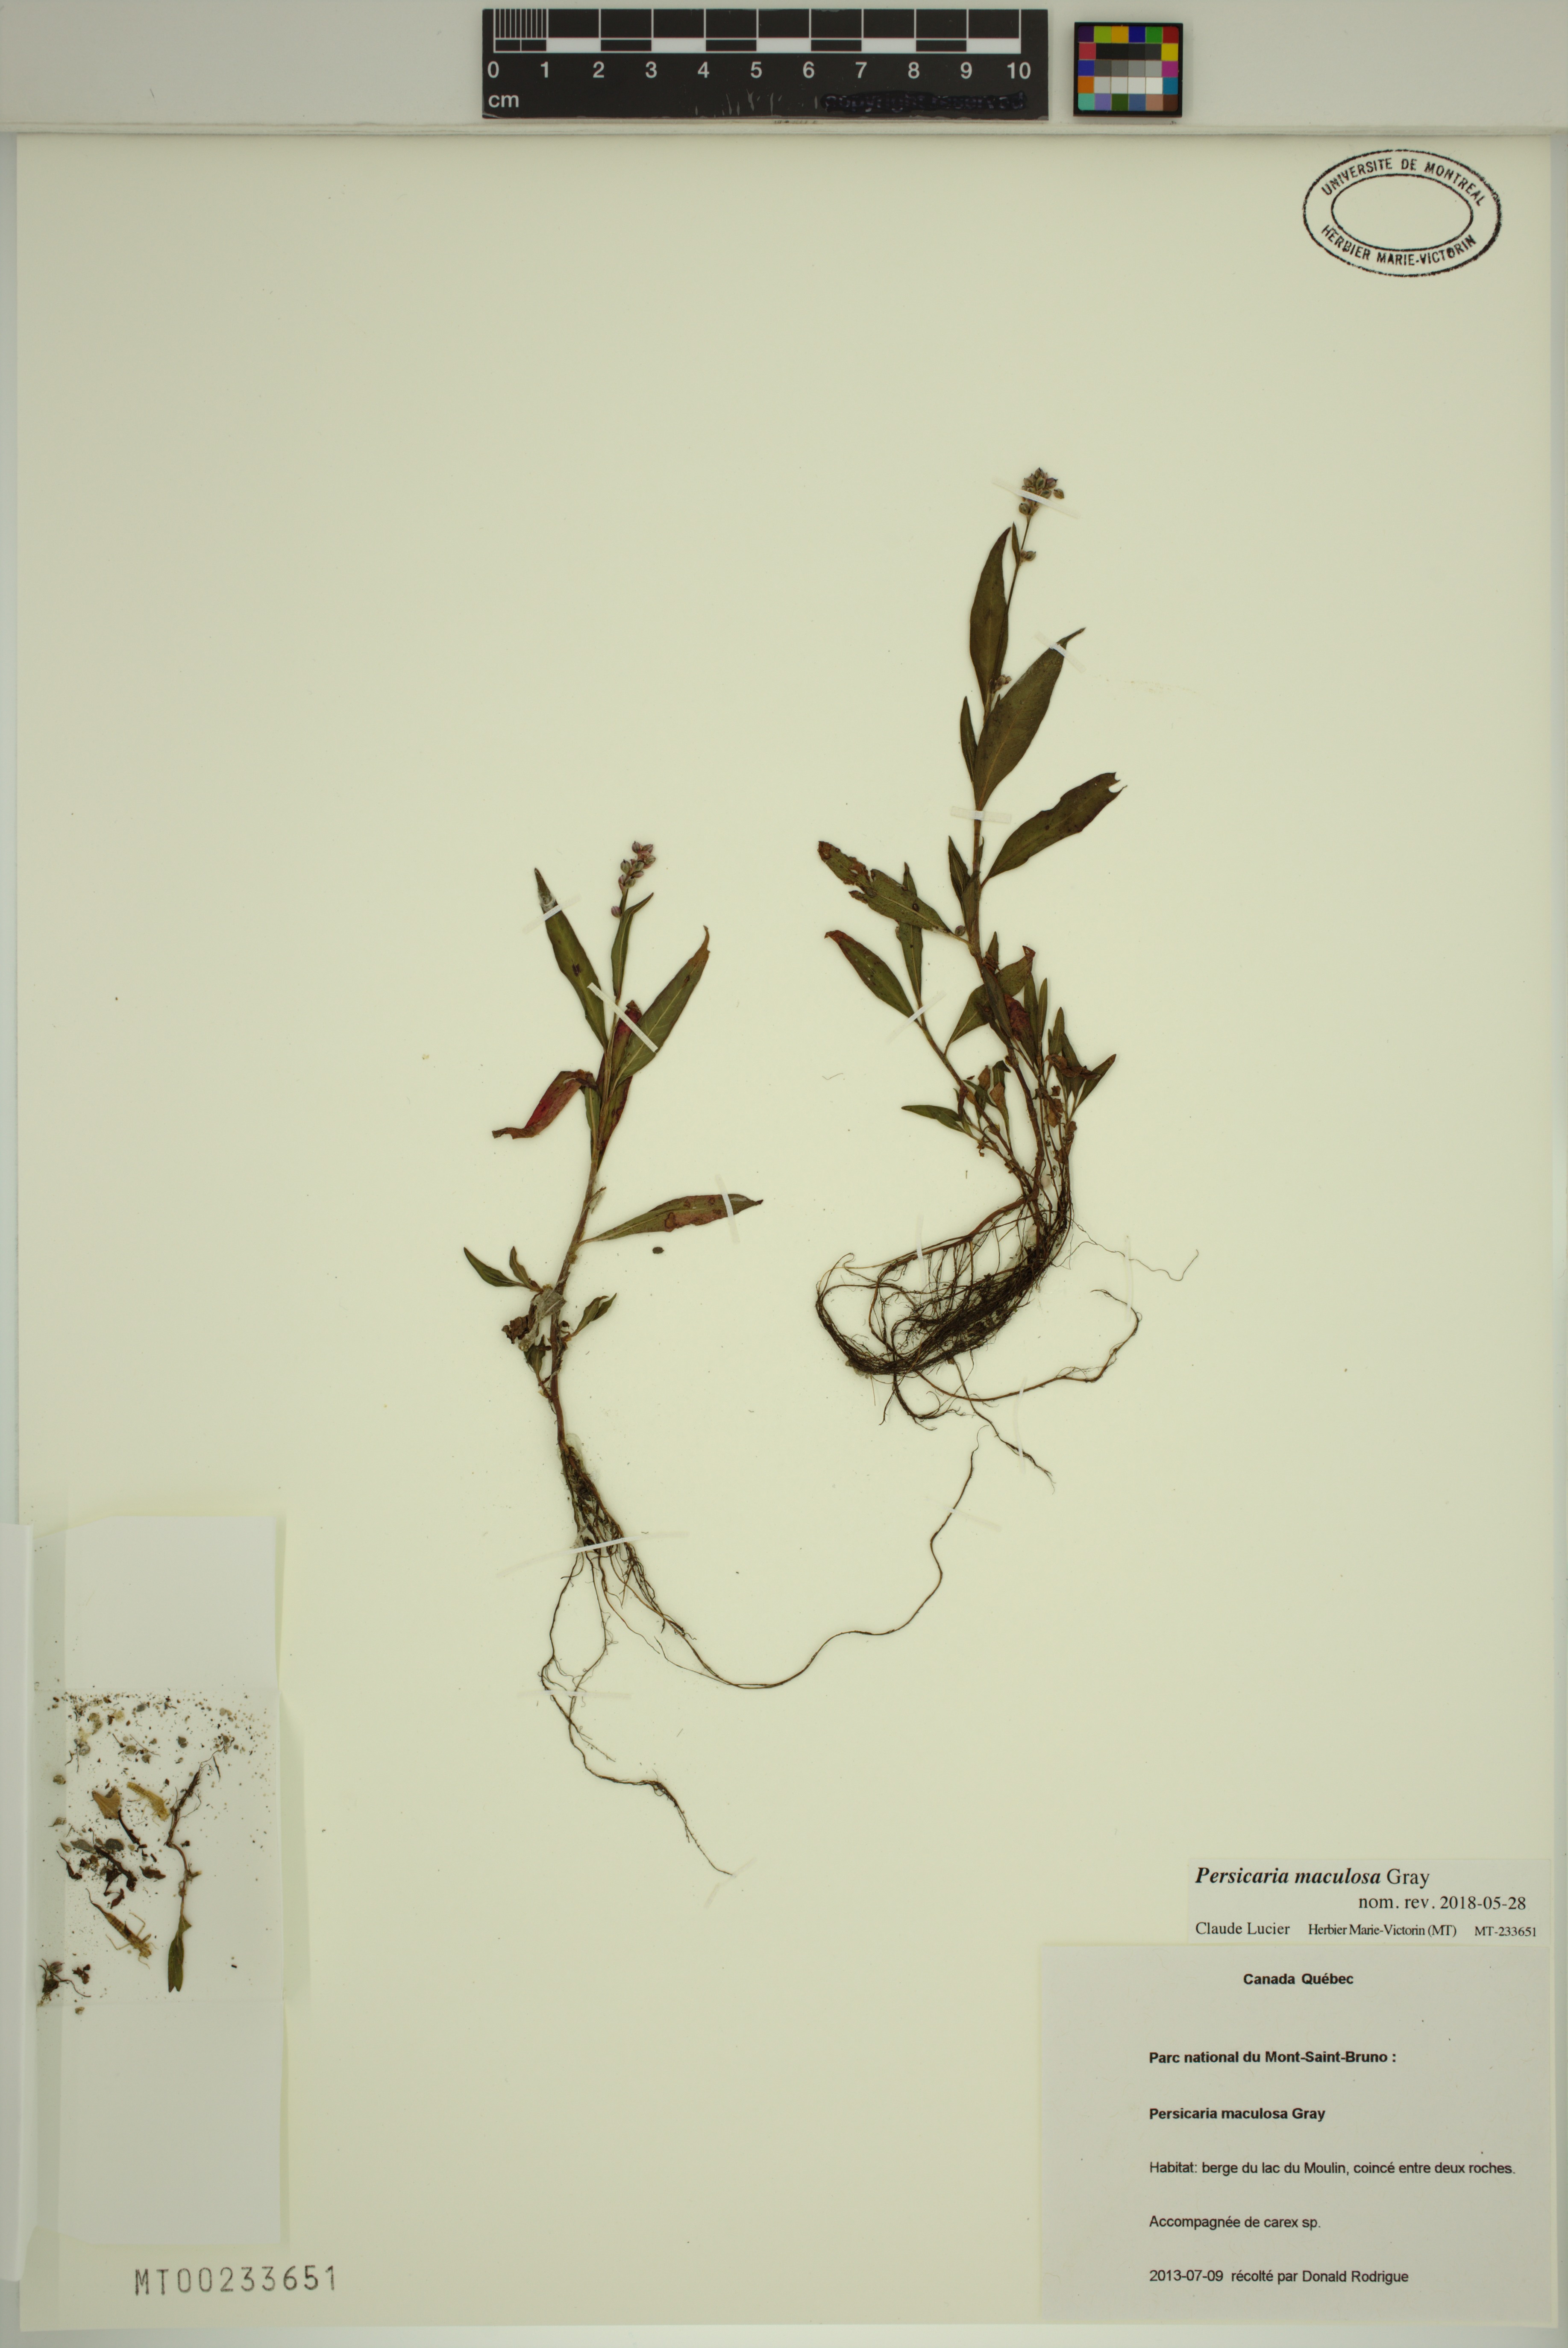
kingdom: Plantae
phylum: Tracheophyta
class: Magnoliopsida
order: Caryophyllales
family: Polygonaceae
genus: Persicaria
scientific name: Persicaria maculosa
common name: Redshank
